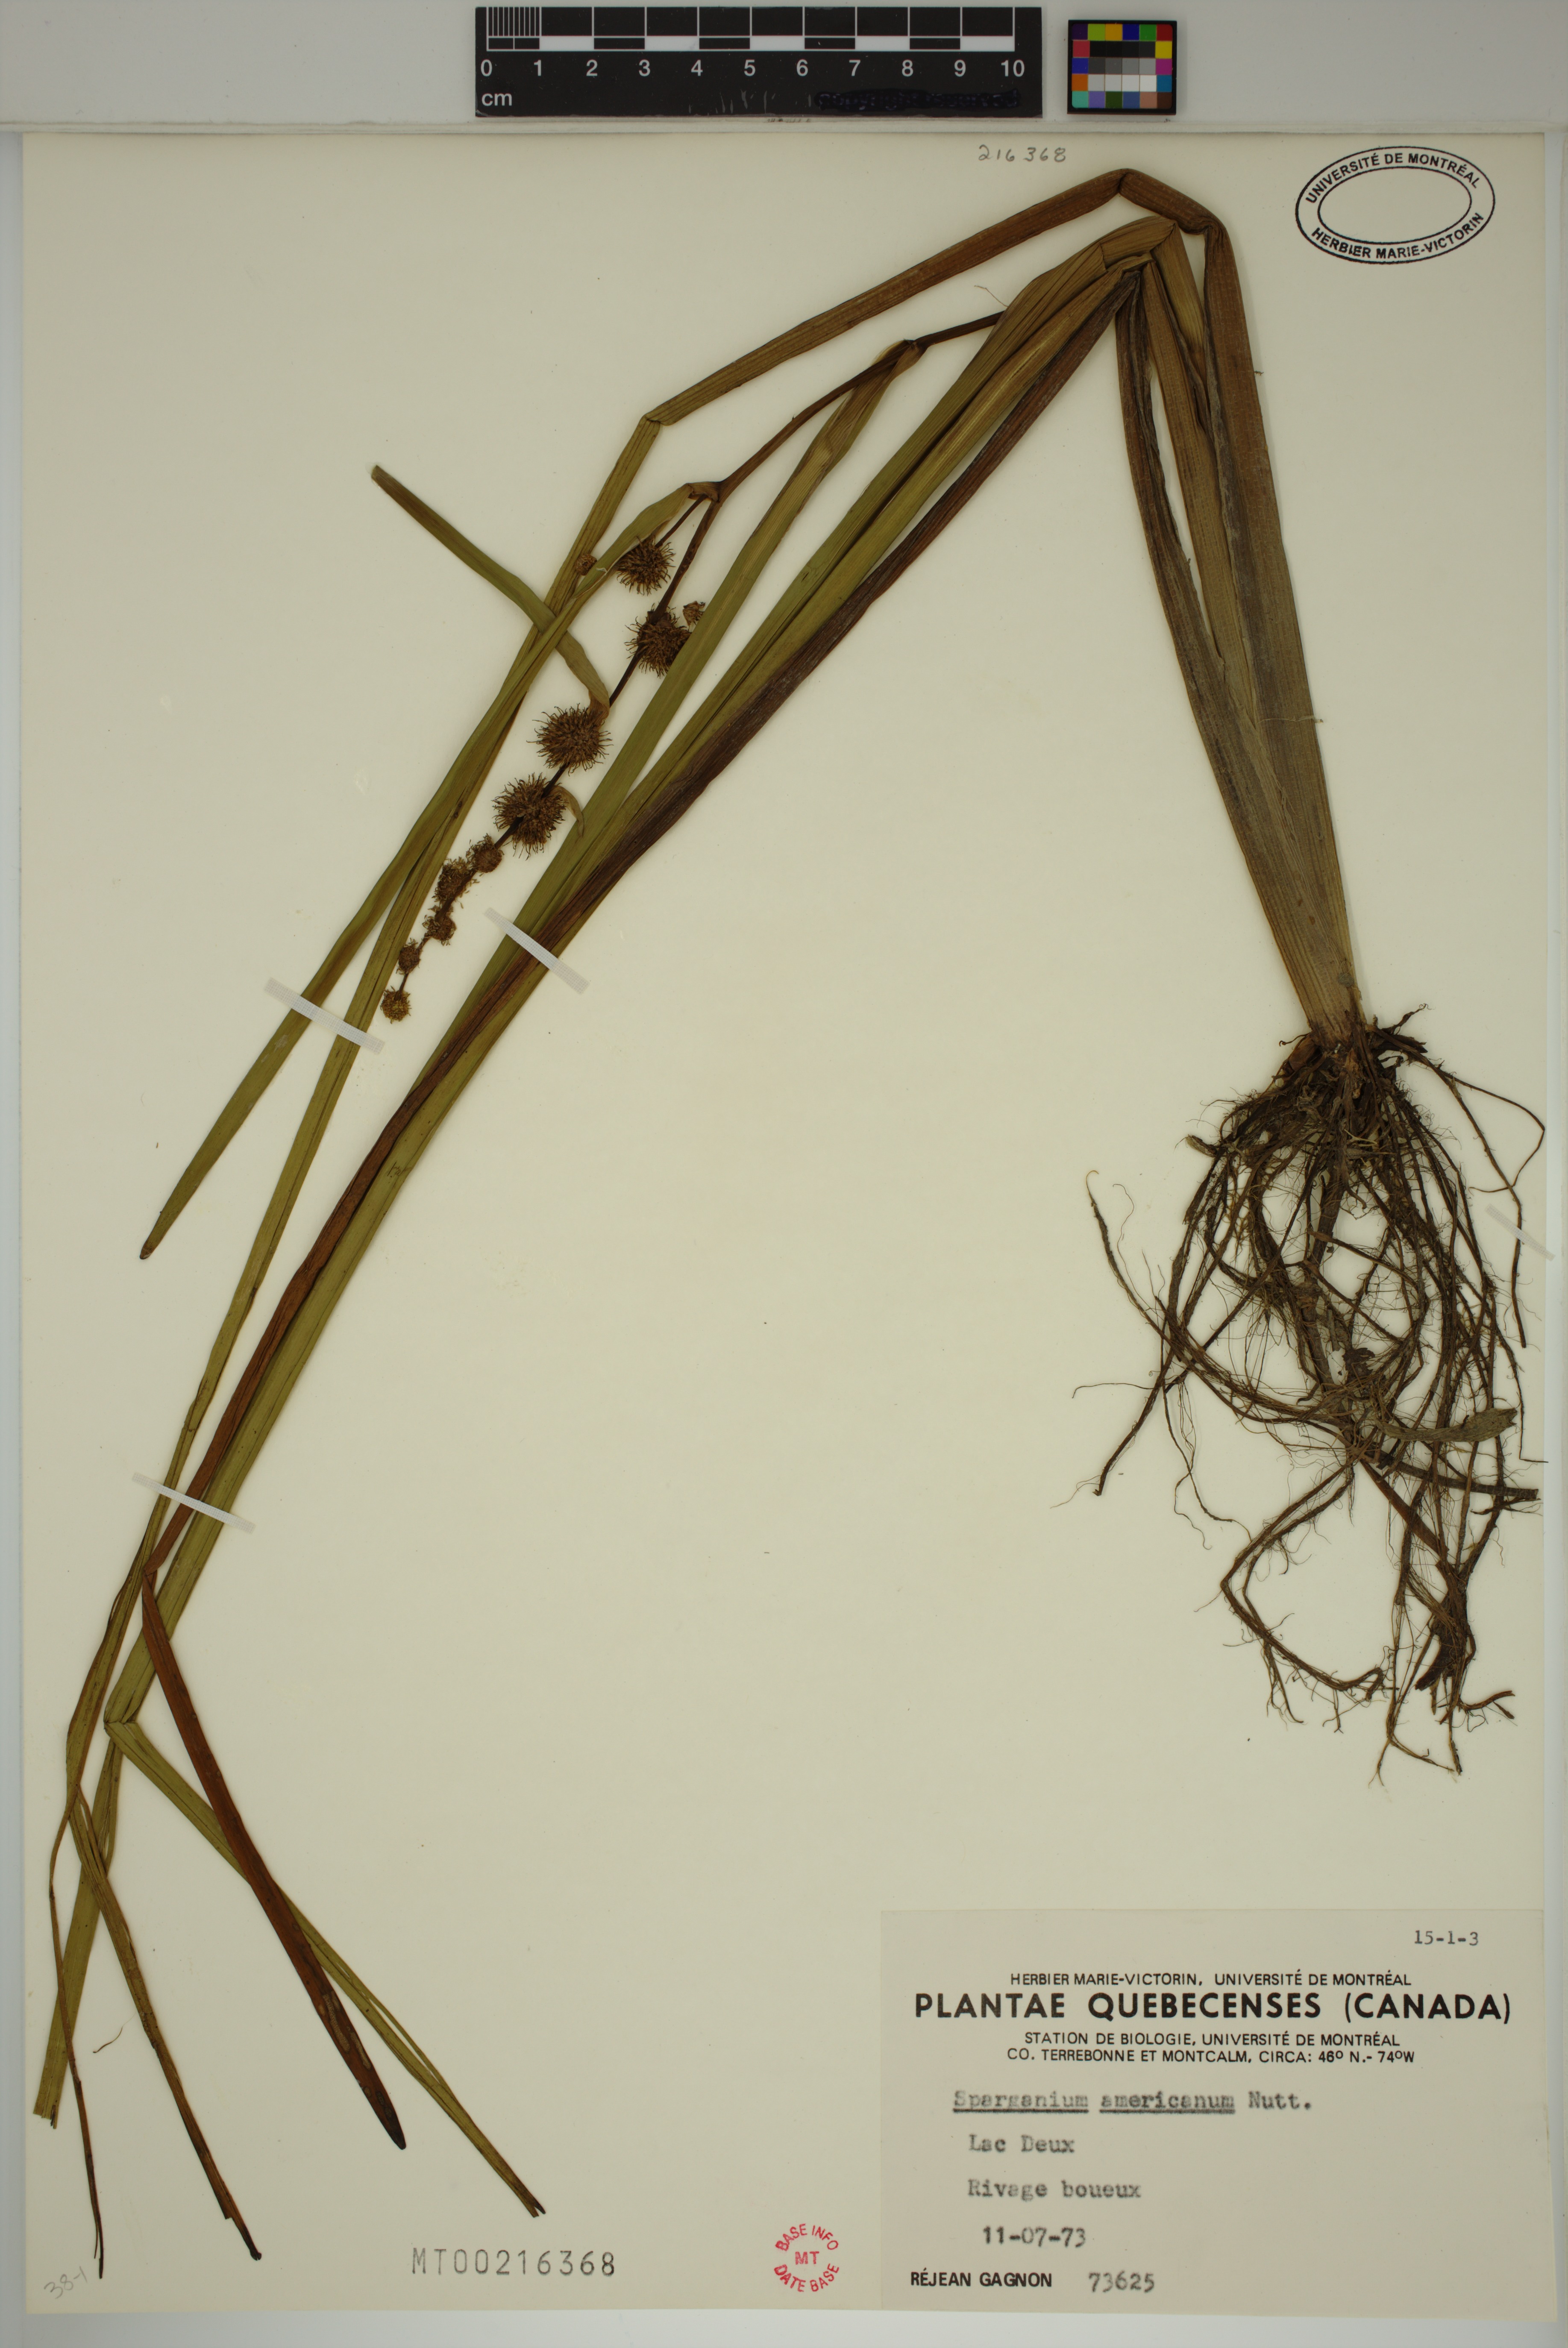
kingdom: Plantae
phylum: Tracheophyta
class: Liliopsida
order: Poales
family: Typhaceae
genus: Sparganium
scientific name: Sparganium americanum
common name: American burreed
